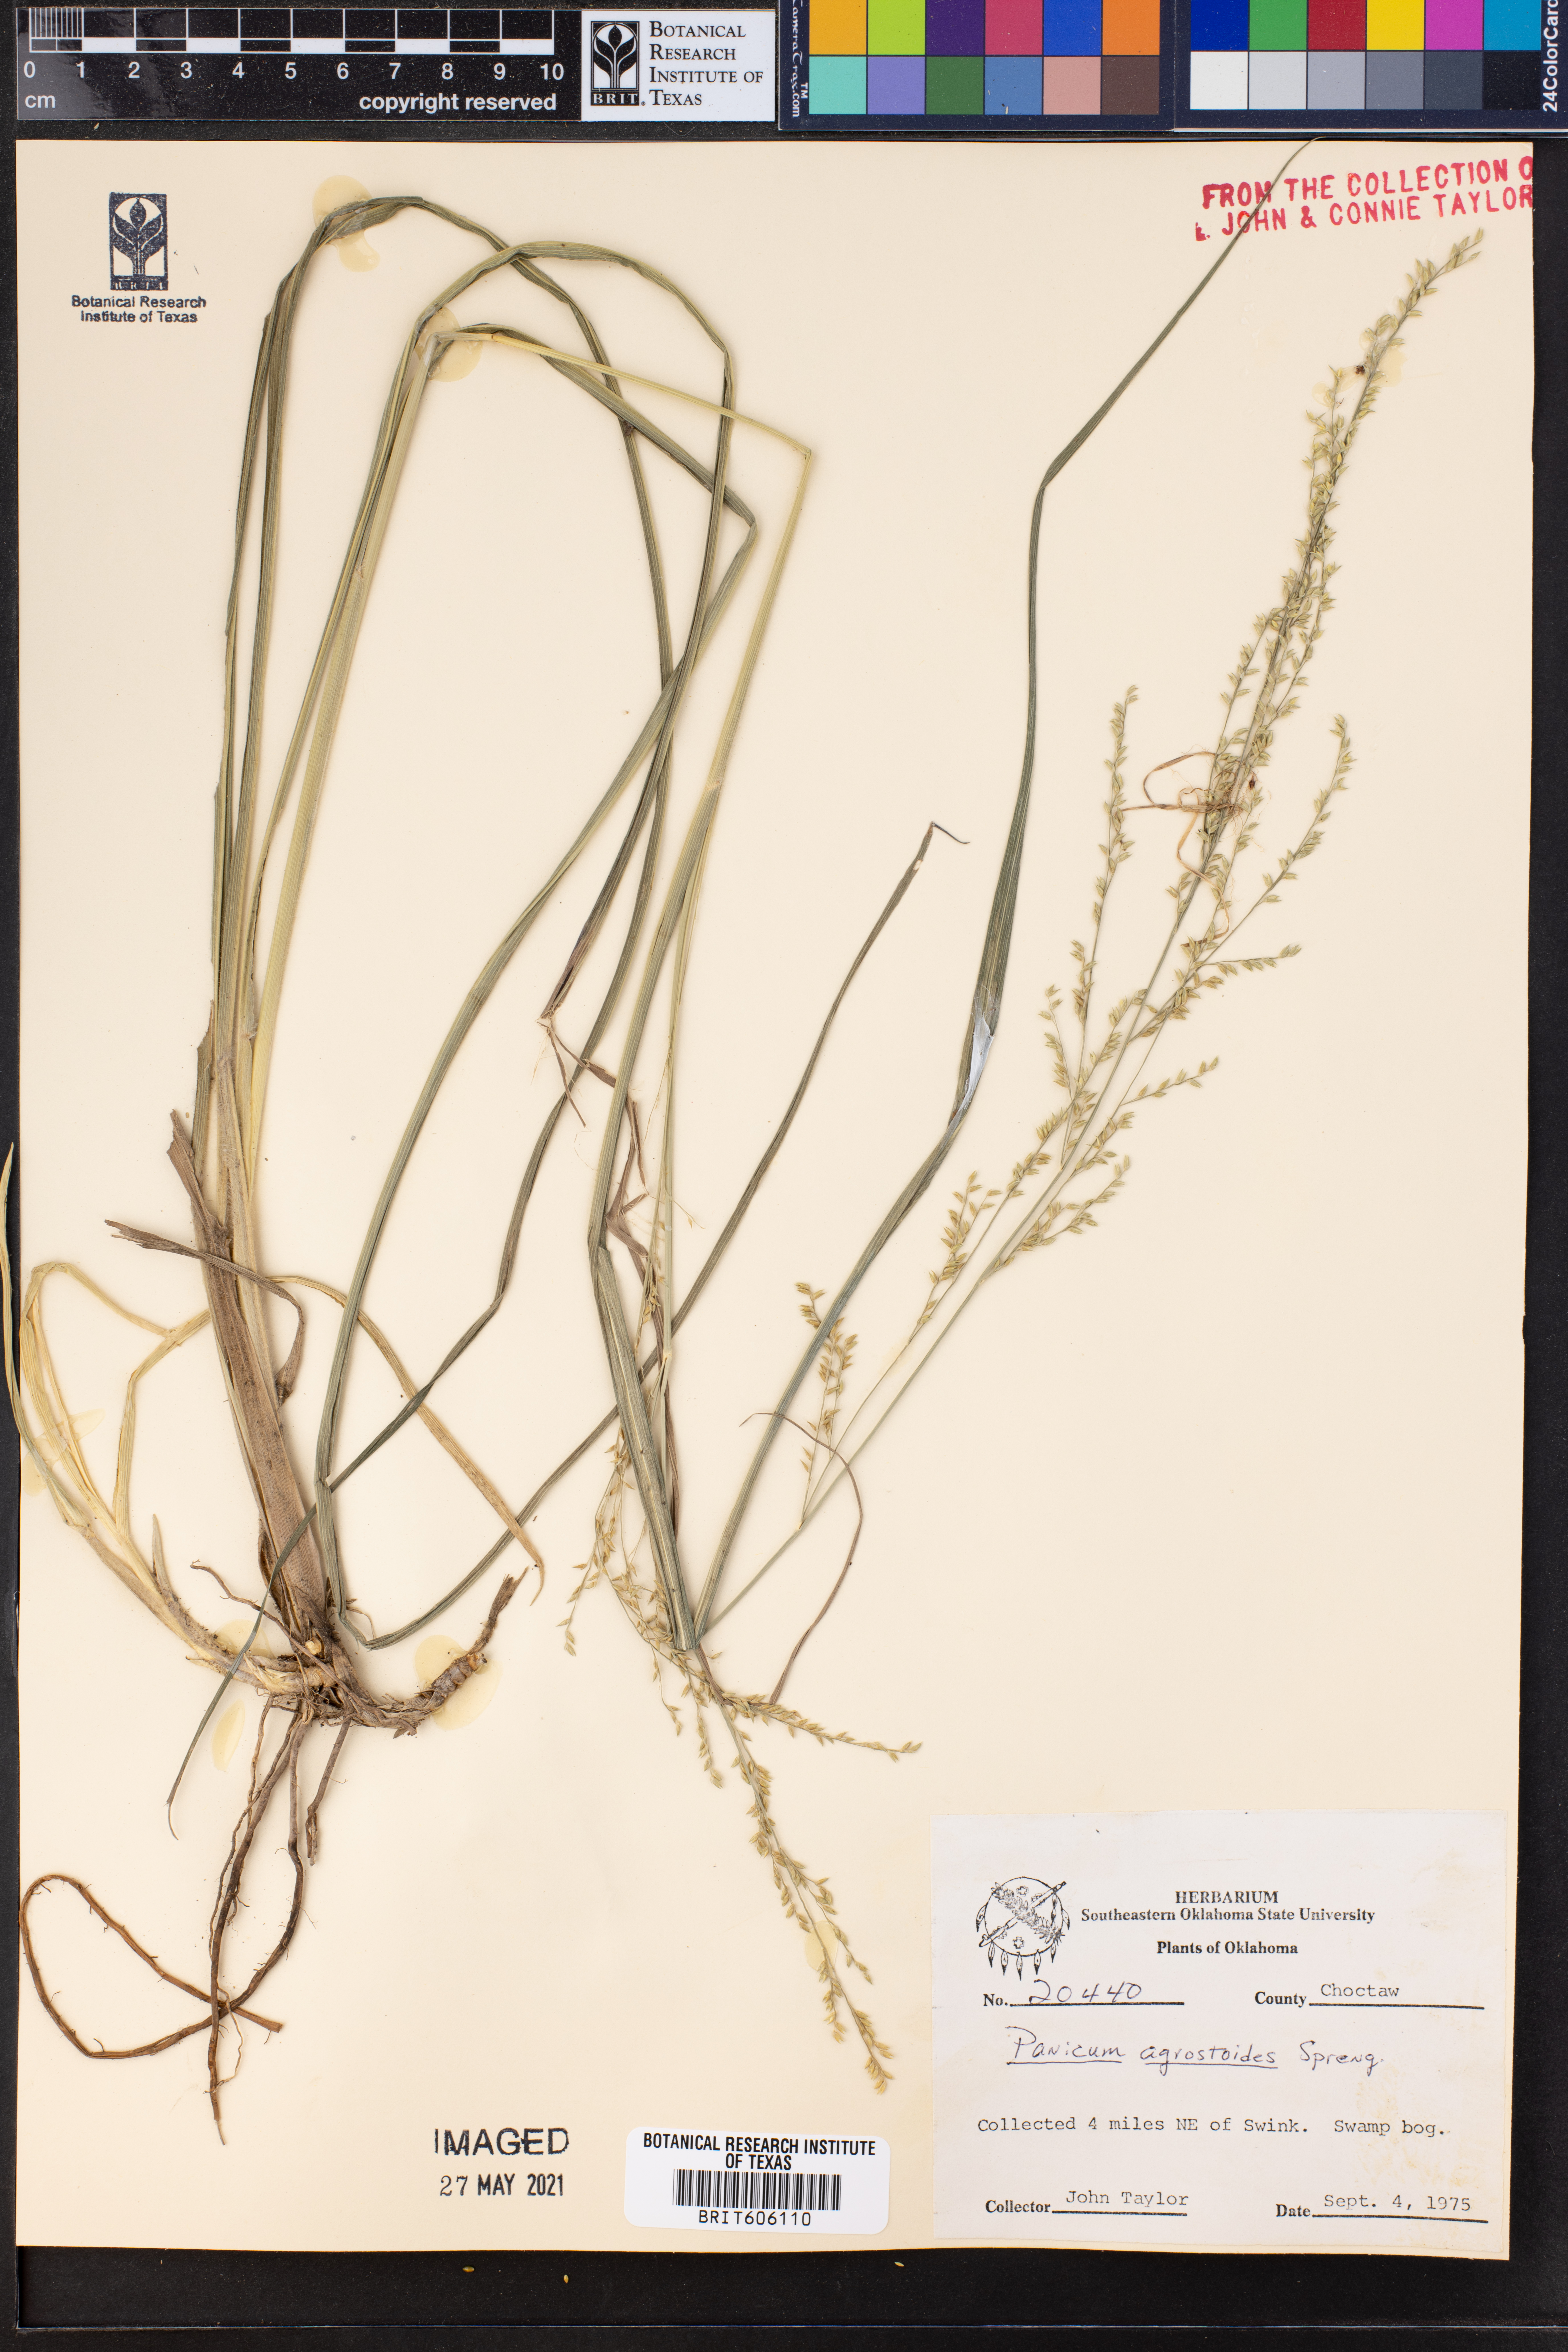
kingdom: Plantae
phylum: Tracheophyta
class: Liliopsida
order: Poales
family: Poaceae
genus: Steinchisma
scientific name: Steinchisma laxum
